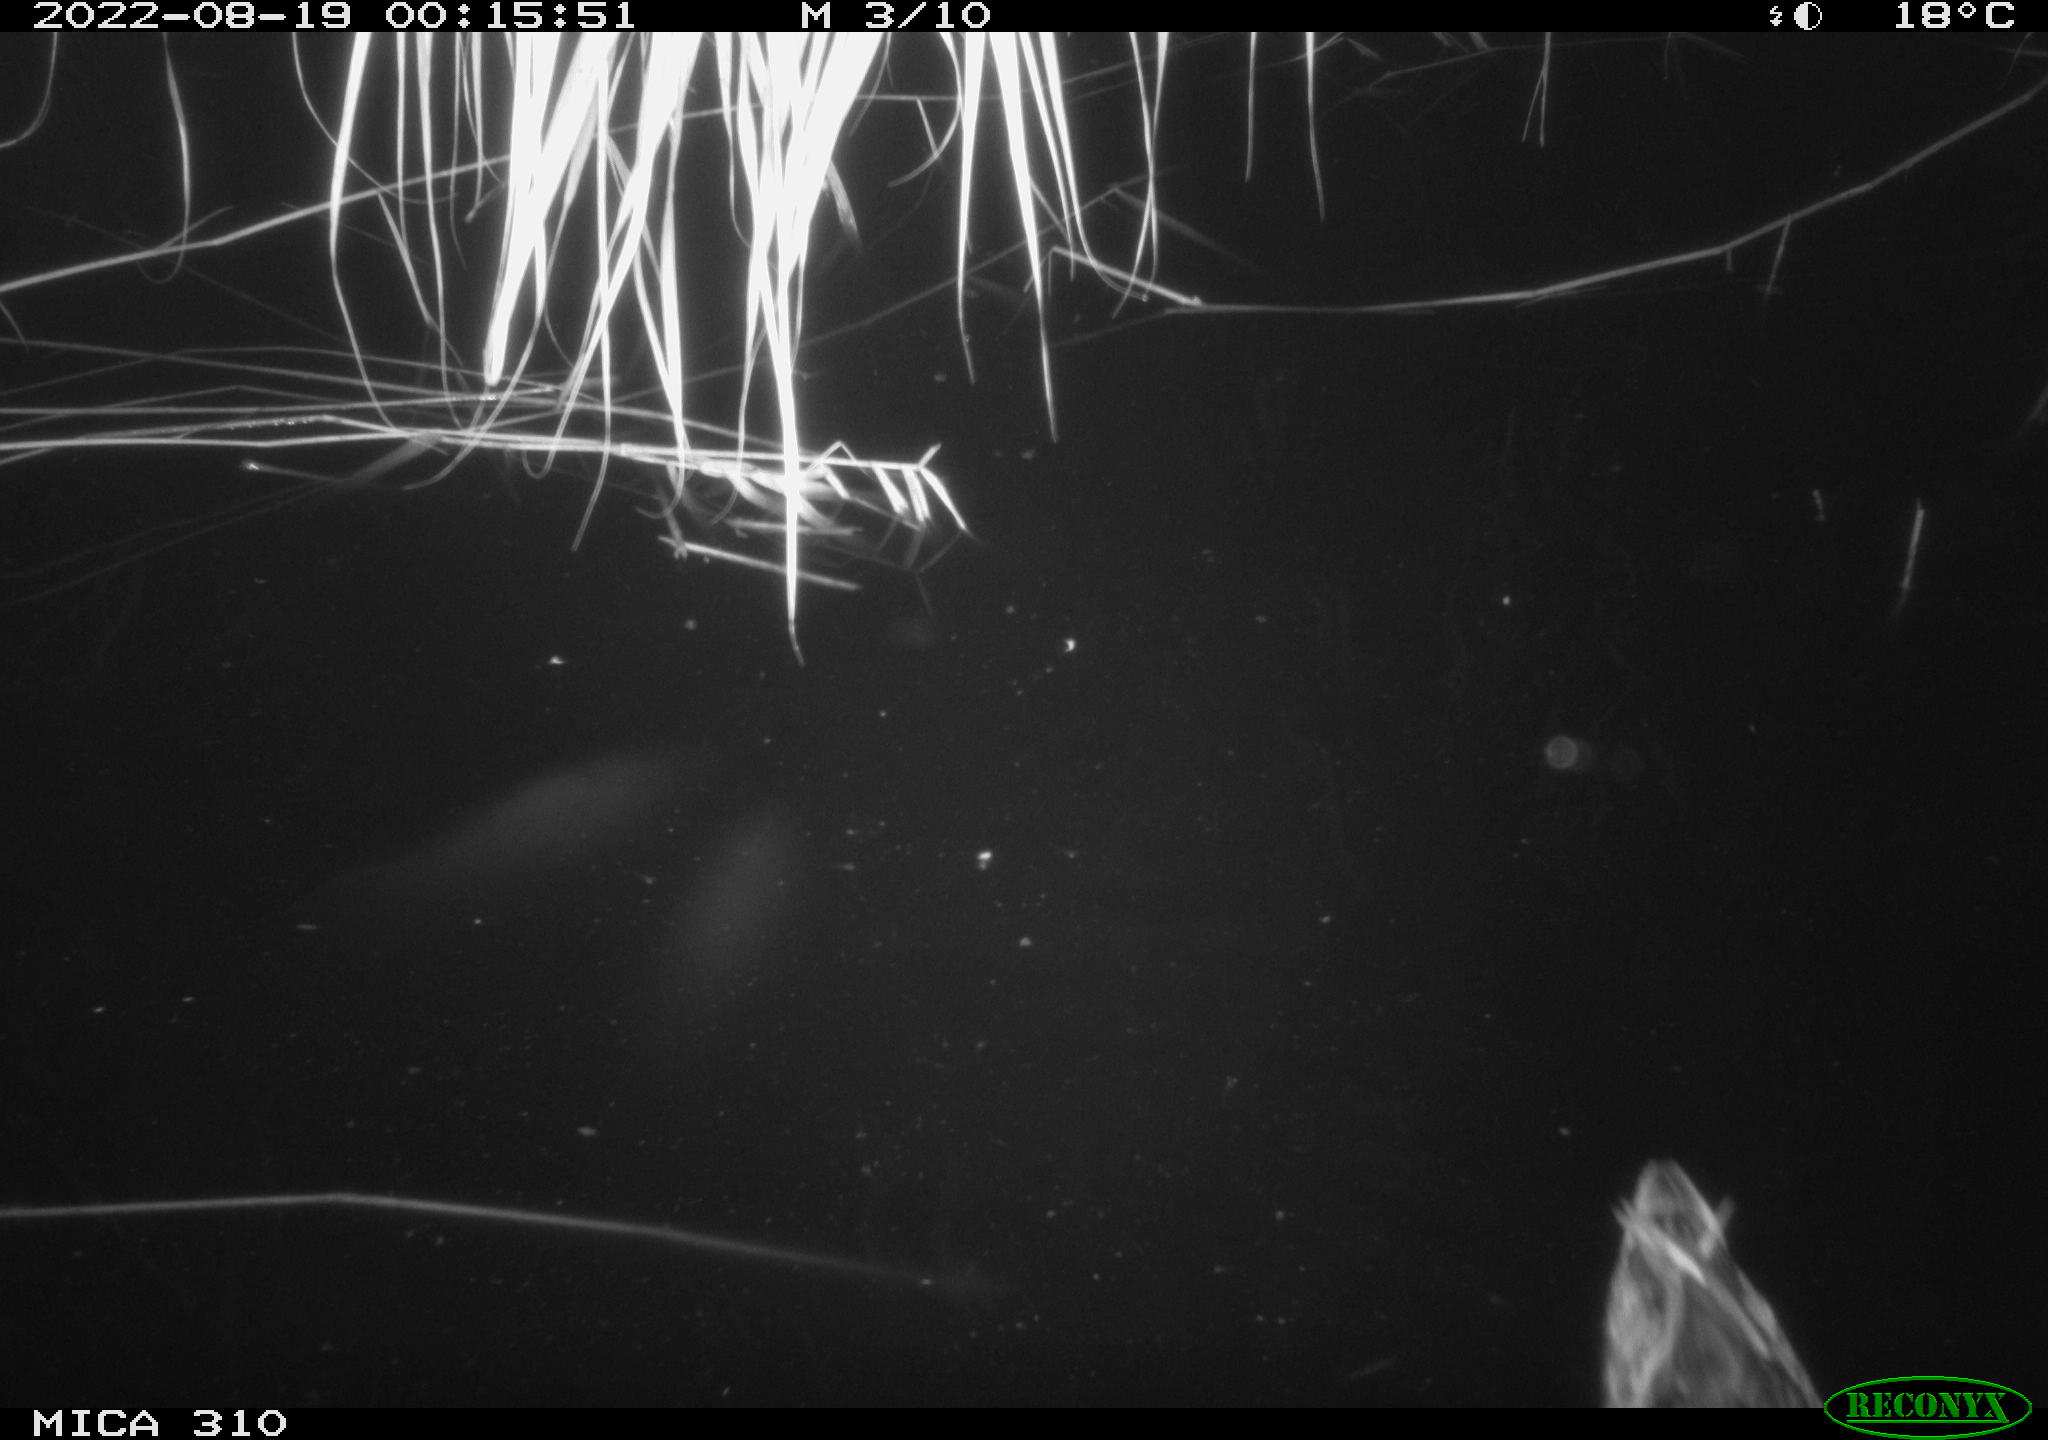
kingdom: Animalia
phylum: Chordata
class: Aves
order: Anseriformes
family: Anatidae
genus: Anas
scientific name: Anas platyrhynchos
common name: Mallard
